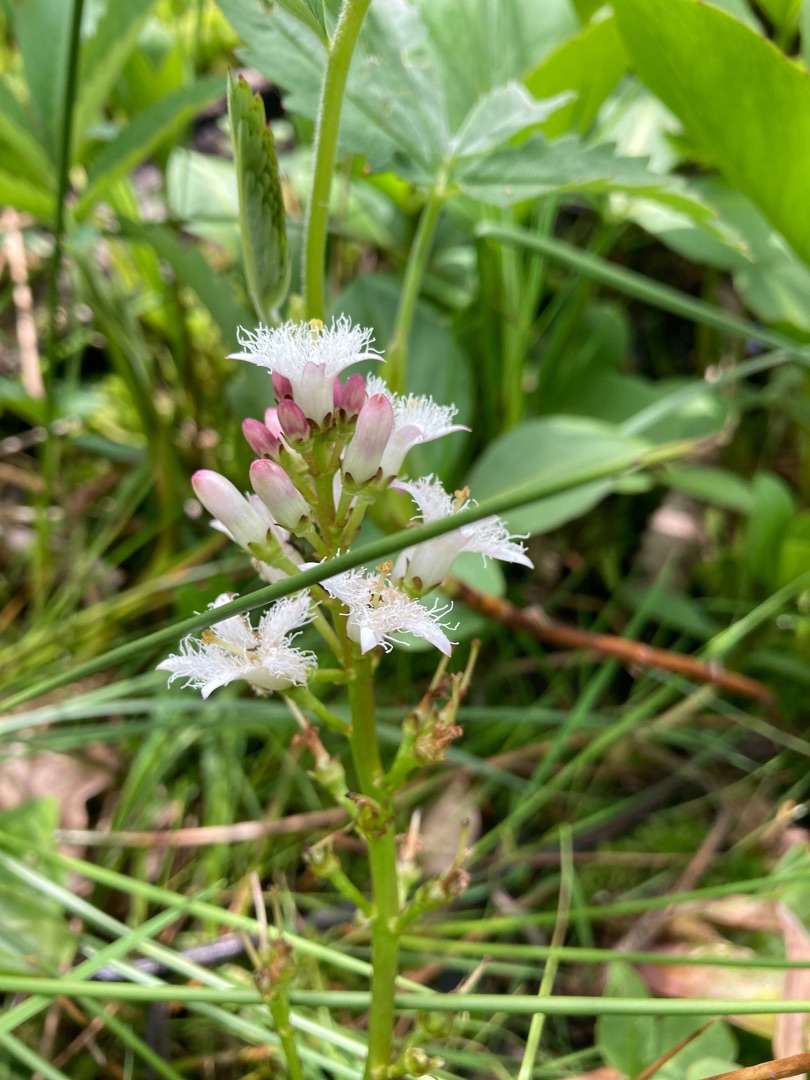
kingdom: Plantae
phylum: Tracheophyta
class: Magnoliopsida
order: Asterales
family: Menyanthaceae
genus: Menyanthes
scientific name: Menyanthes trifoliata
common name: Bukkeblad
